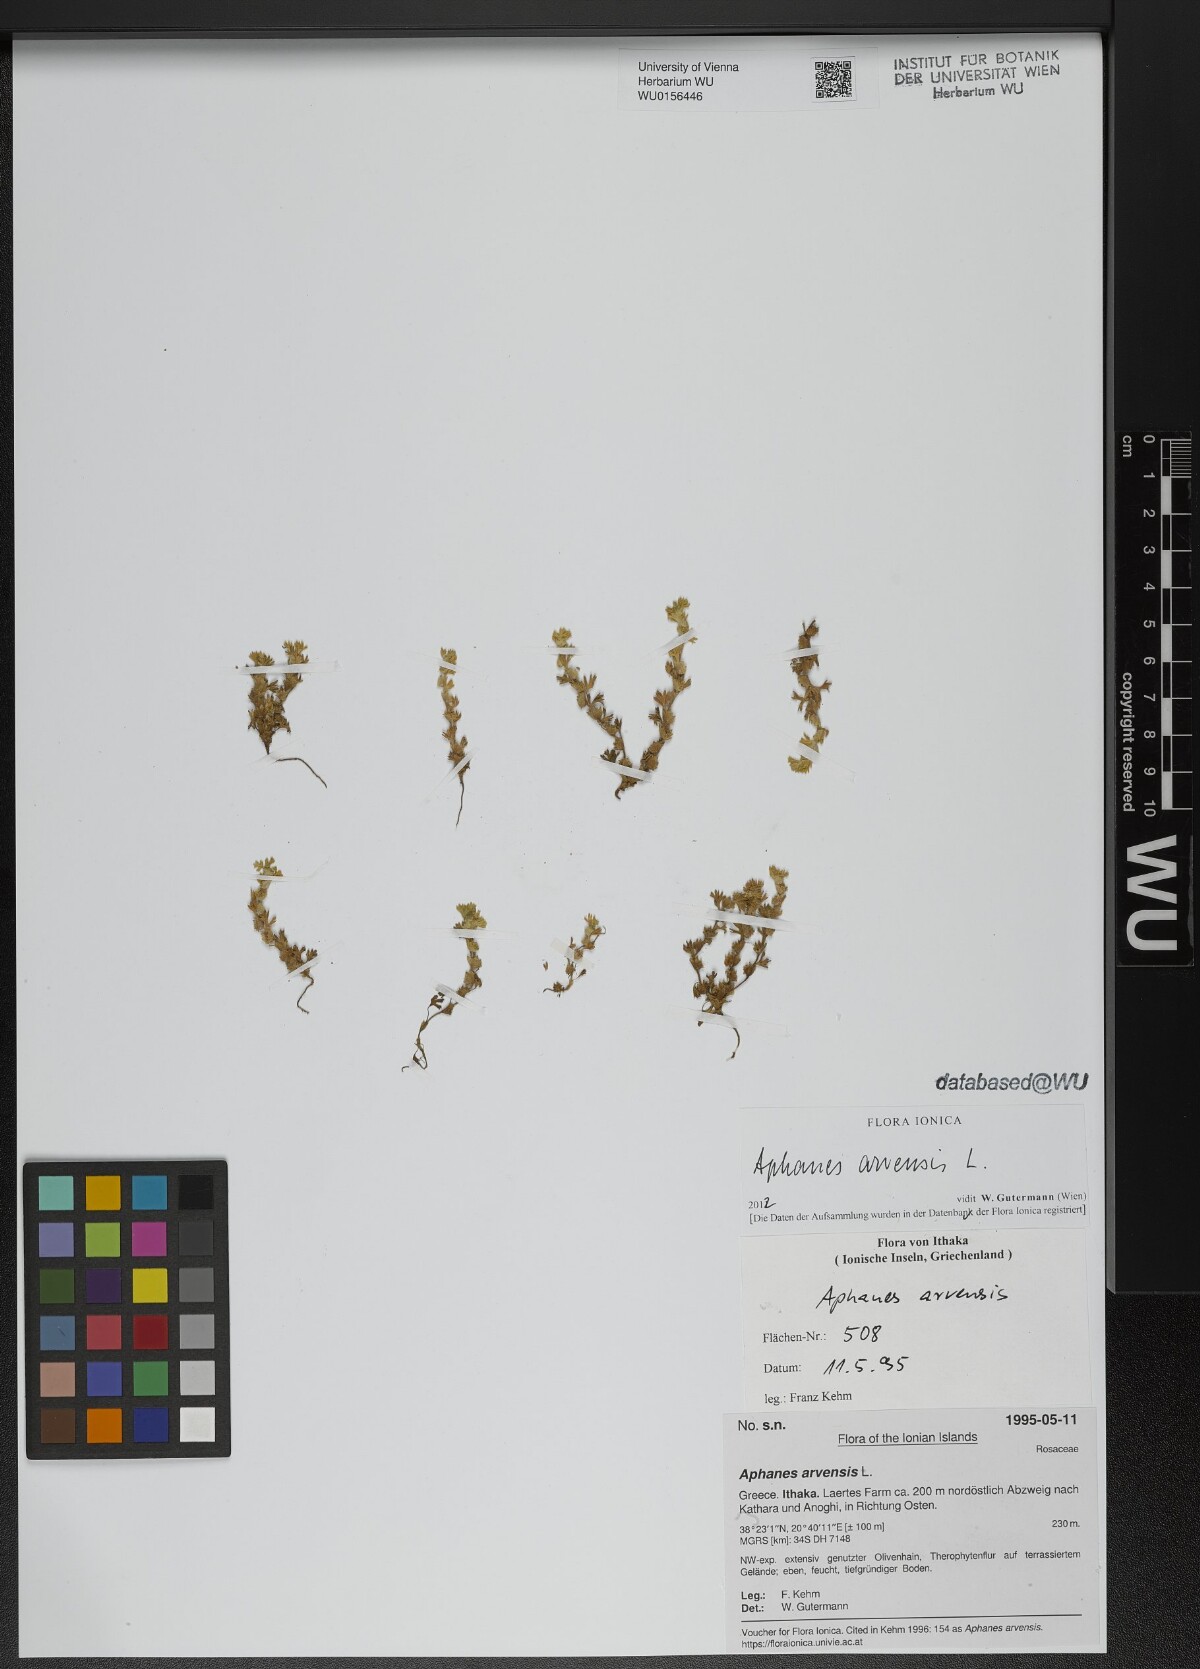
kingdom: Plantae
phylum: Tracheophyta
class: Magnoliopsida
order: Rosales
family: Rosaceae
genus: Aphanes
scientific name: Aphanes arvensis
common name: Parsley-piert
